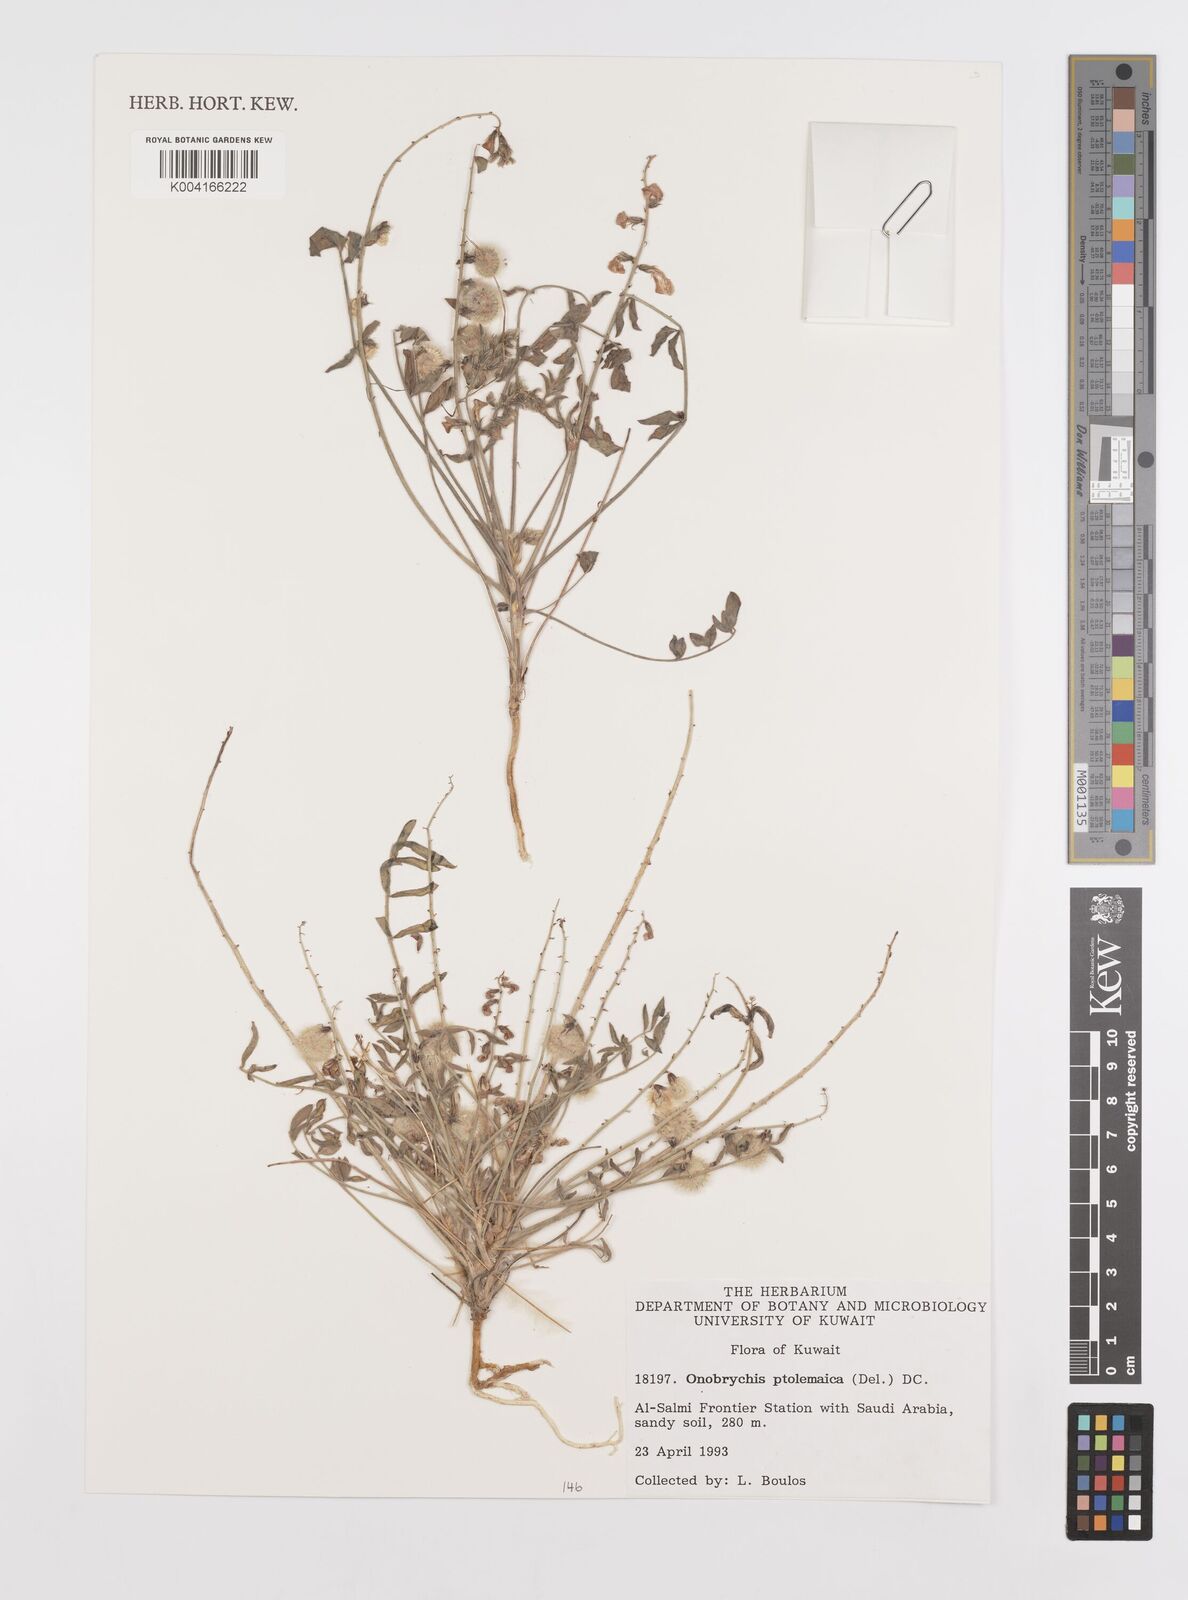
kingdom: Plantae
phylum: Tracheophyta
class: Magnoliopsida
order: Fabales
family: Fabaceae
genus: Onobrychis
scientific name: Onobrychis ptolemaica
